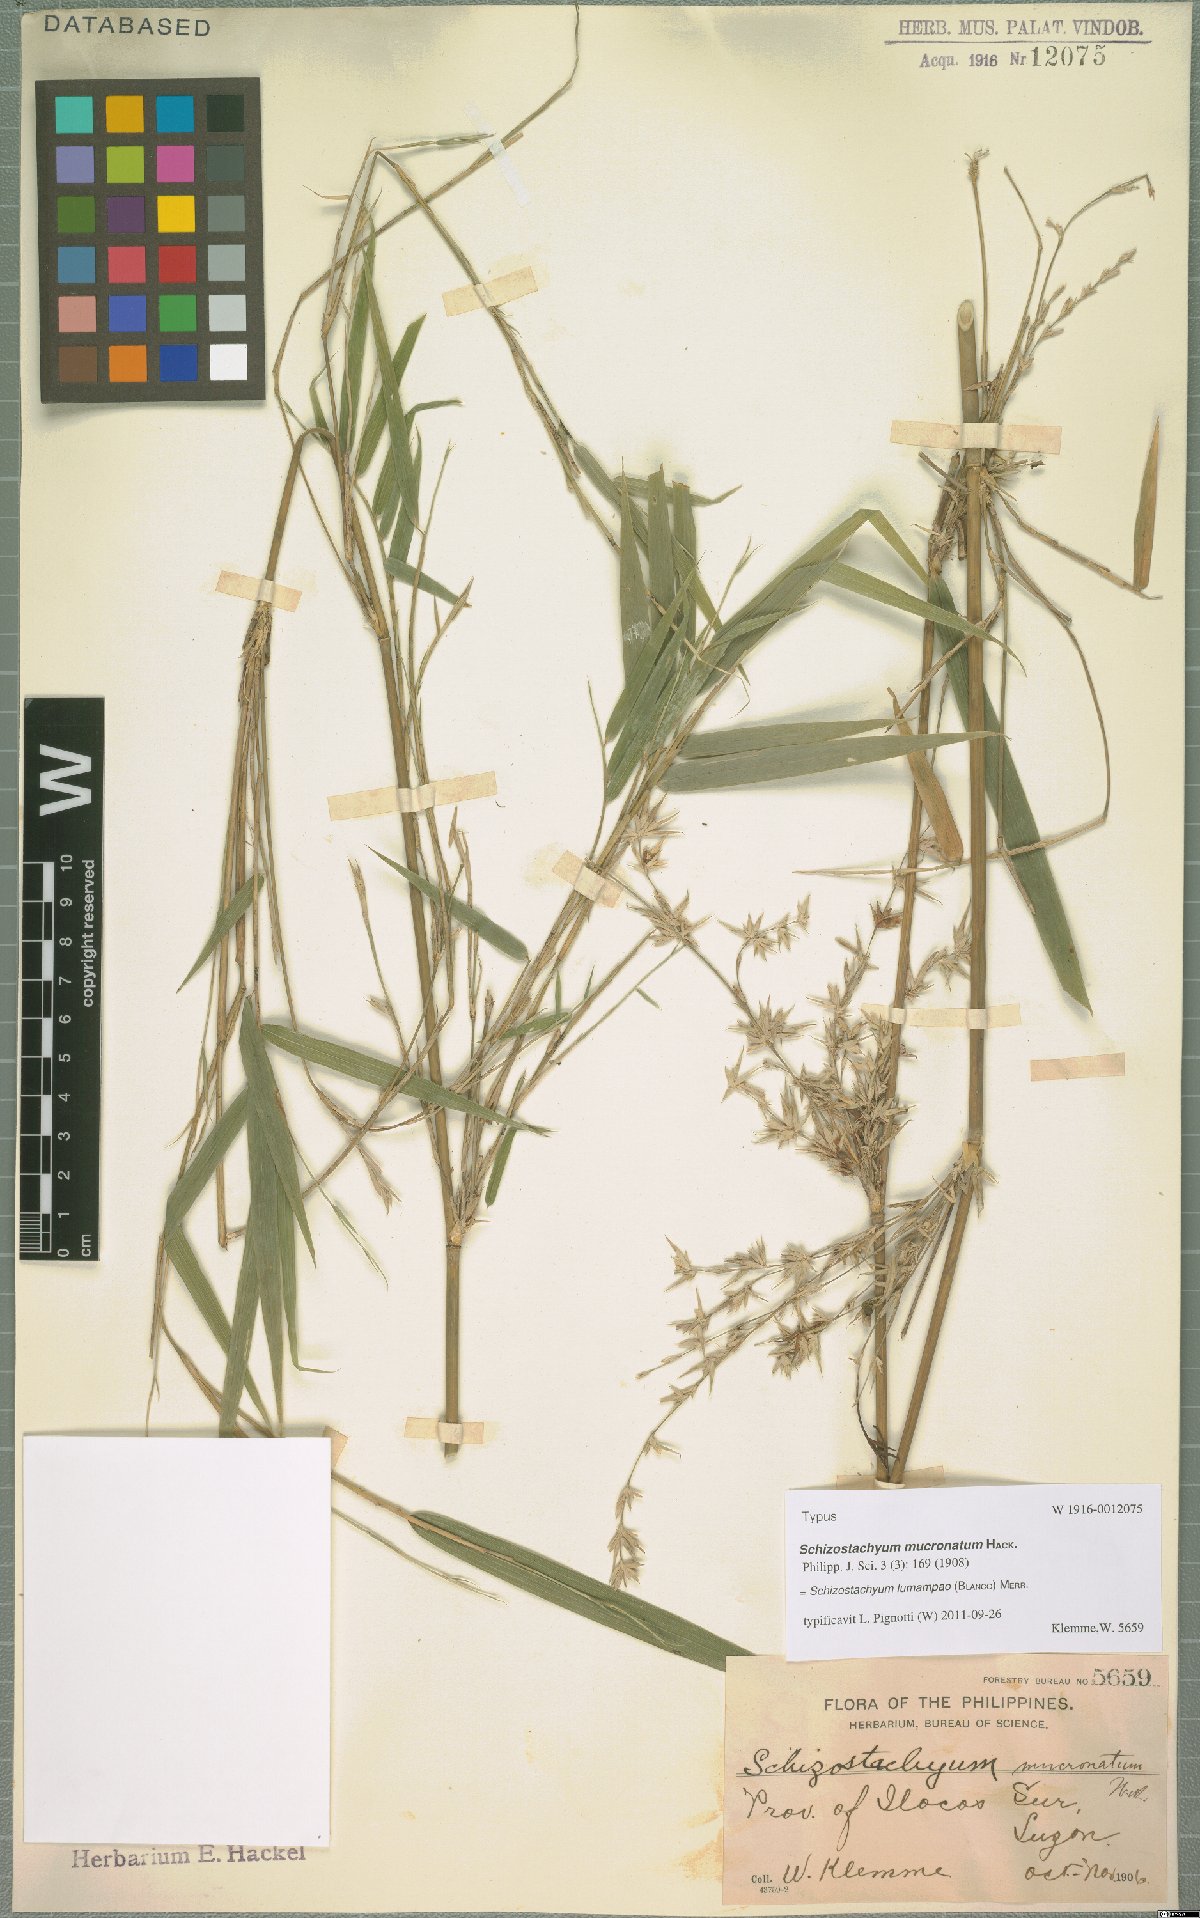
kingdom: Plantae
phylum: Tracheophyta
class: Liliopsida
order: Poales
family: Poaceae
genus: Schizostachyum
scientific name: Schizostachyum lumampao
